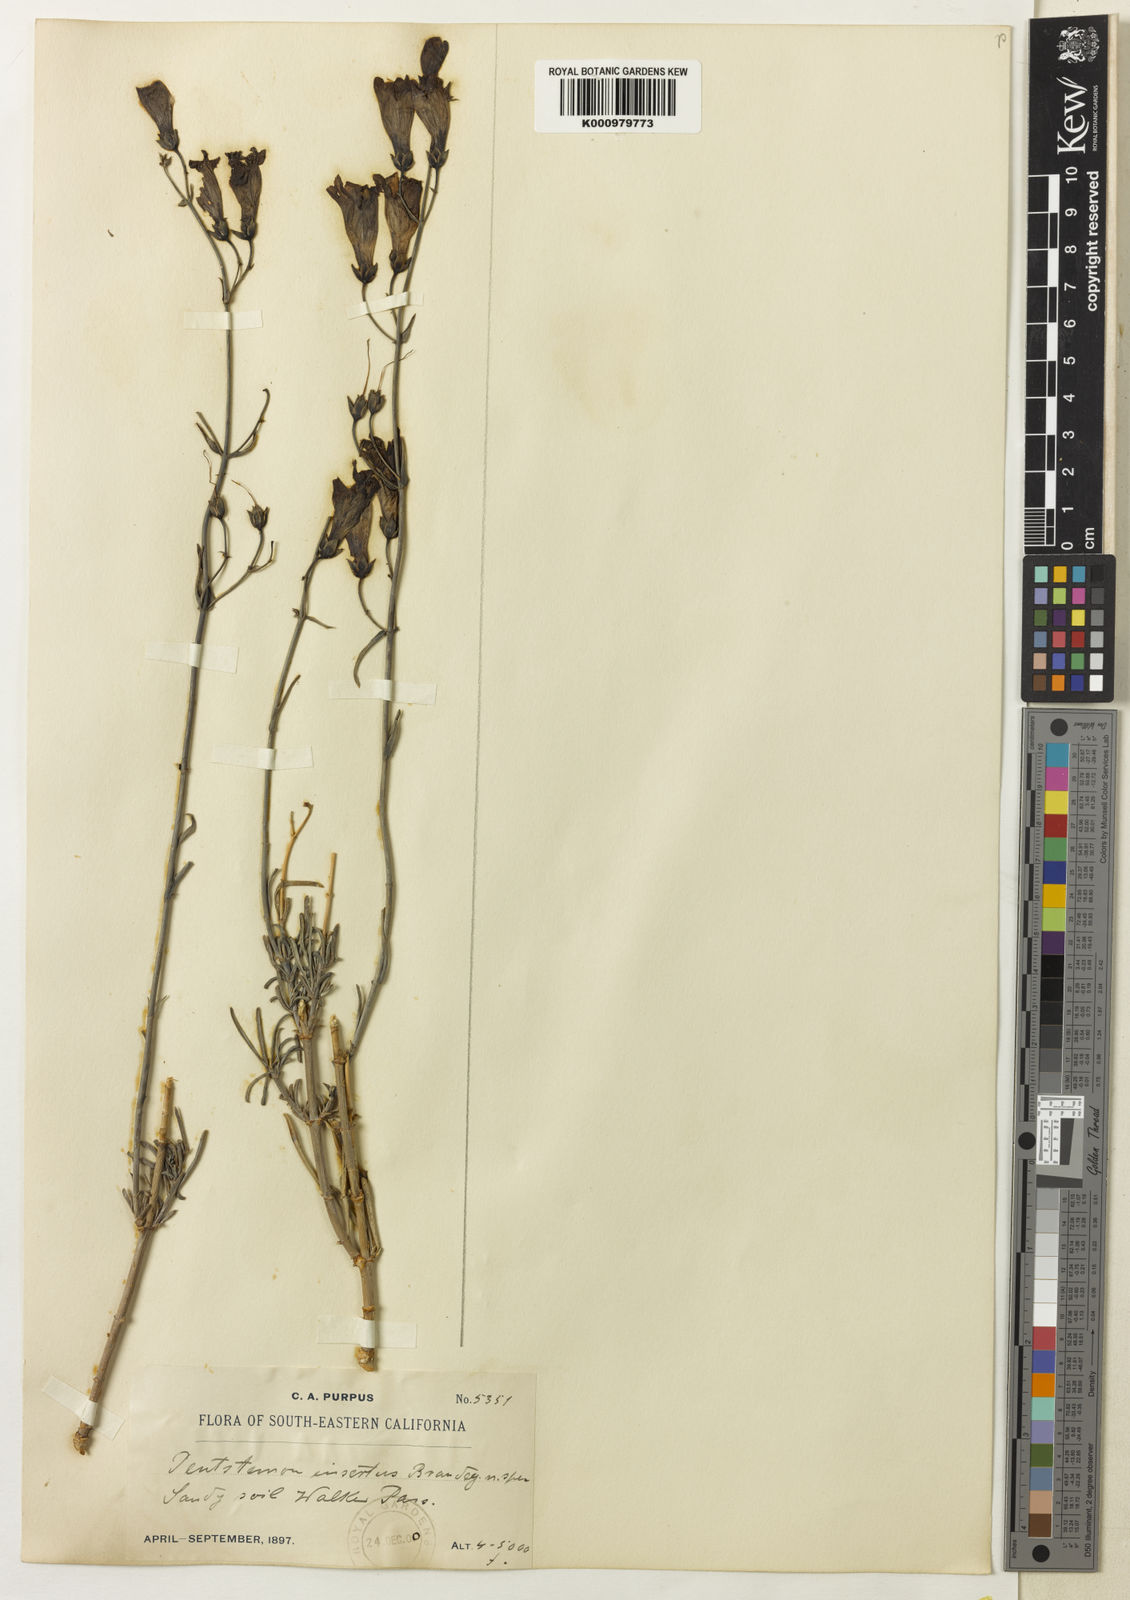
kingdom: Plantae
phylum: Tracheophyta
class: Magnoliopsida
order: Lamiales
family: Plantaginaceae
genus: Penstemon
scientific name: Penstemon incertus
